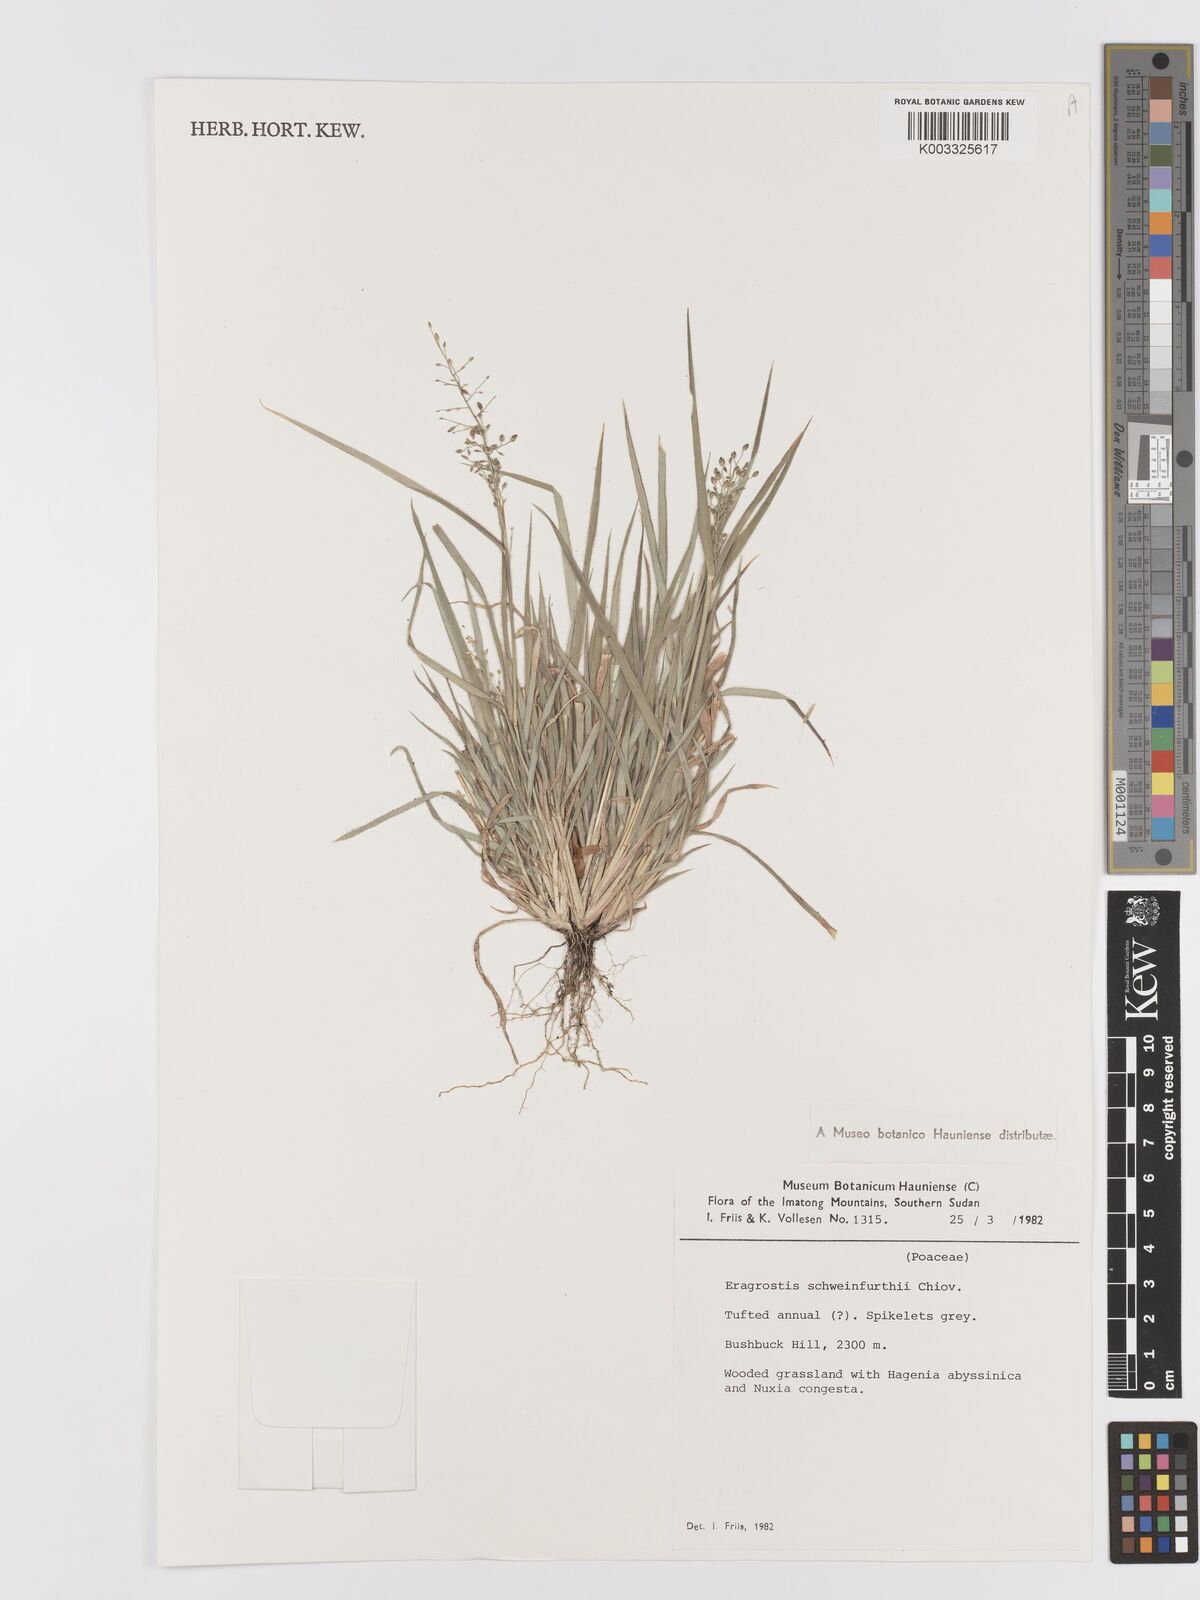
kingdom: Plantae
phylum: Tracheophyta
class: Liliopsida
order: Poales
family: Poaceae
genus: Eragrostis
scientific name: Eragrostis schweinfurthii
